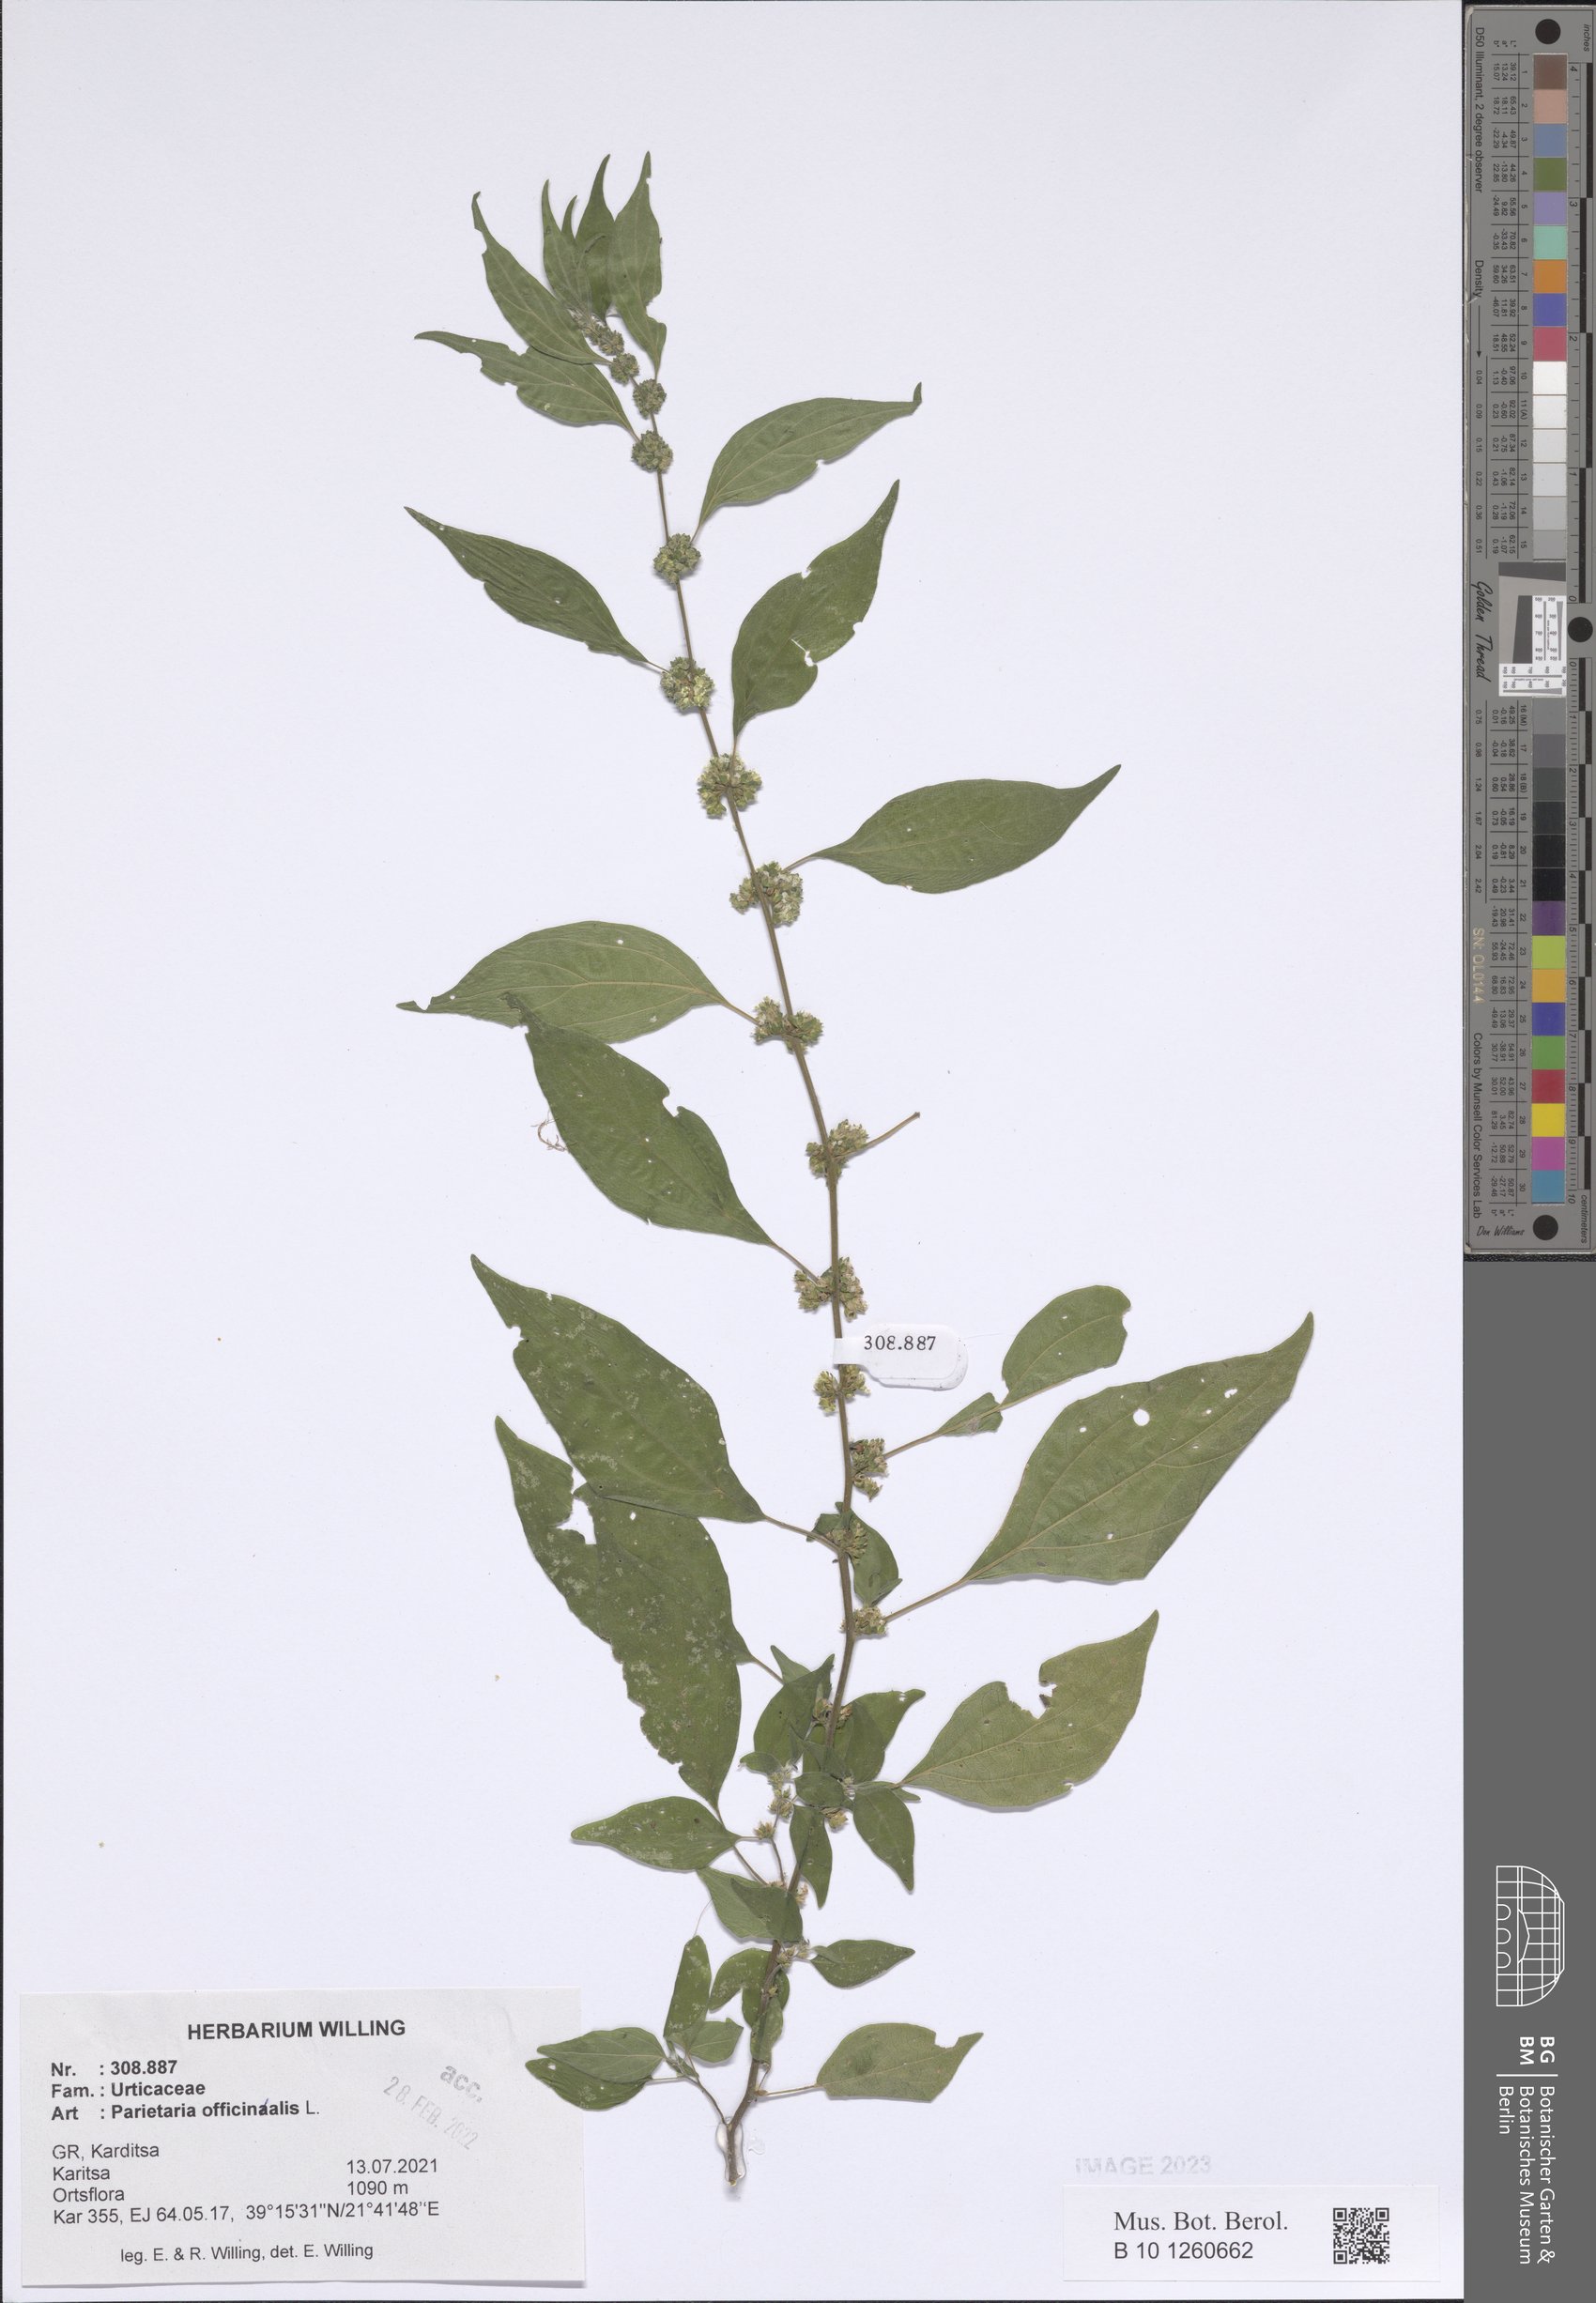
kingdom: Plantae
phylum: Tracheophyta
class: Magnoliopsida
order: Rosales
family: Urticaceae
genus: Parietaria
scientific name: Parietaria officinalis
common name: Eastern pellitory-of-the-wall
